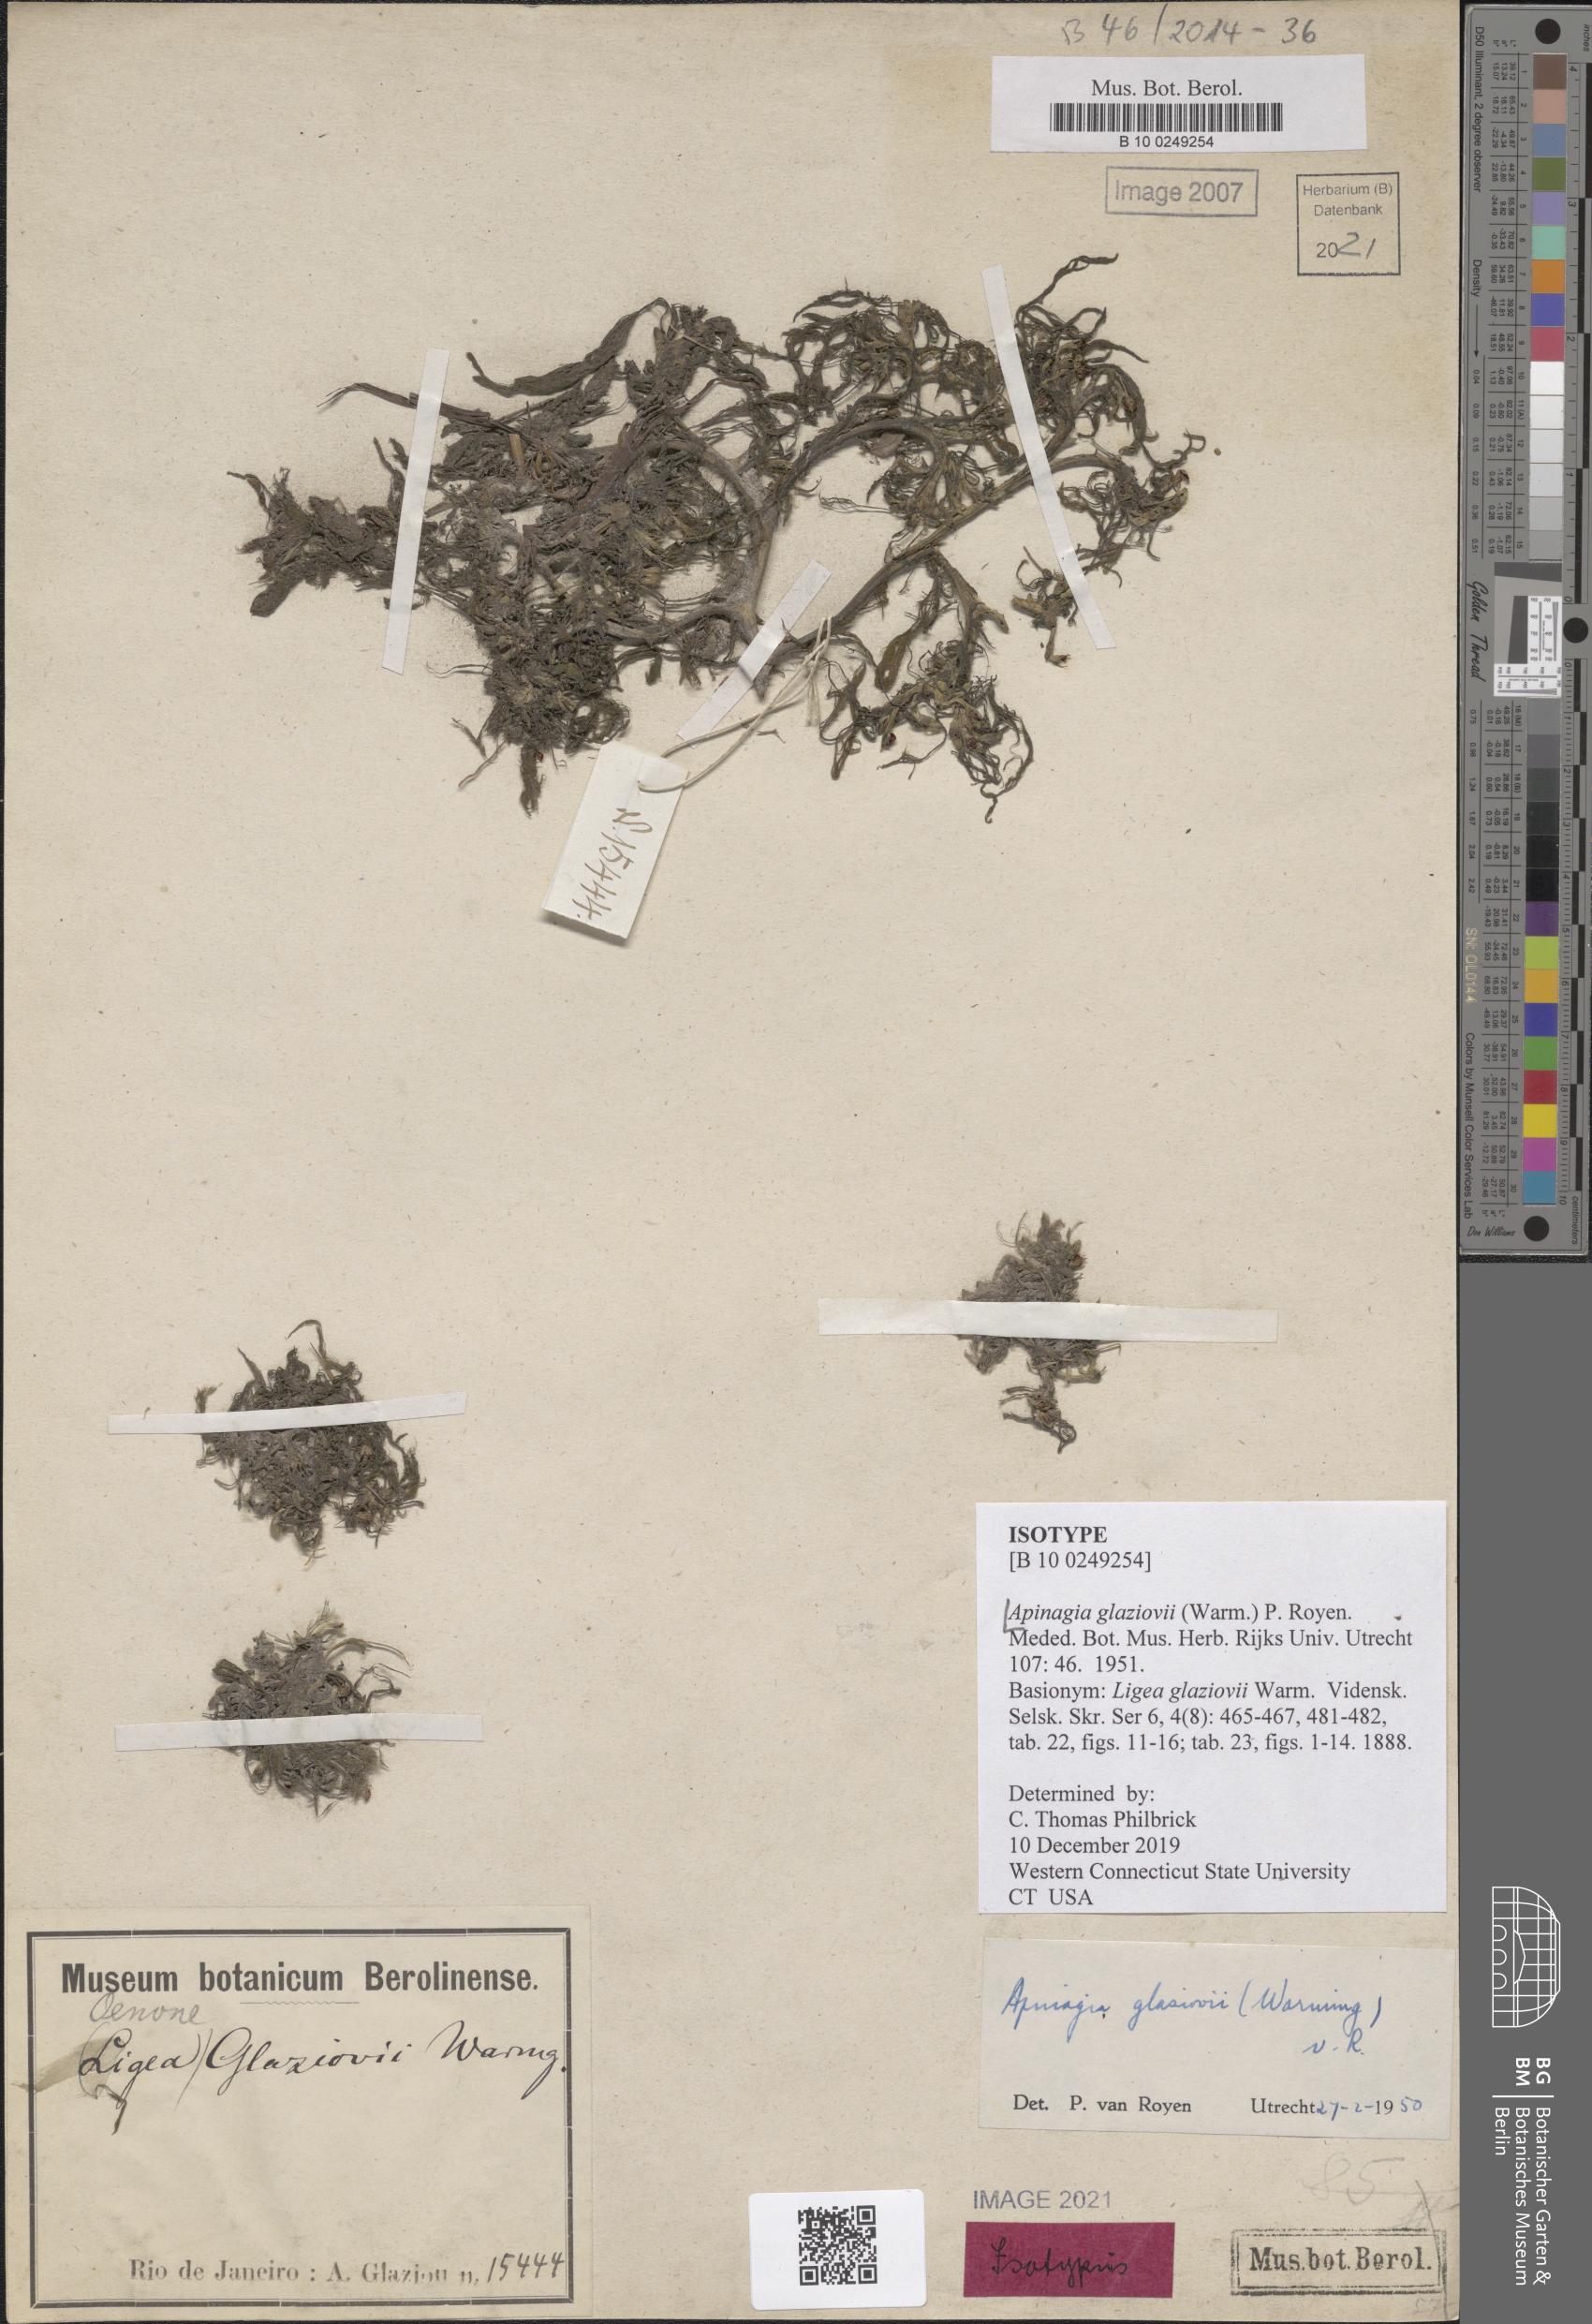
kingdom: Plantae
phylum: Tracheophyta
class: Magnoliopsida
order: Malpighiales
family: Podostemaceae
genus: Apinagia
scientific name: Apinagia glaziovii
